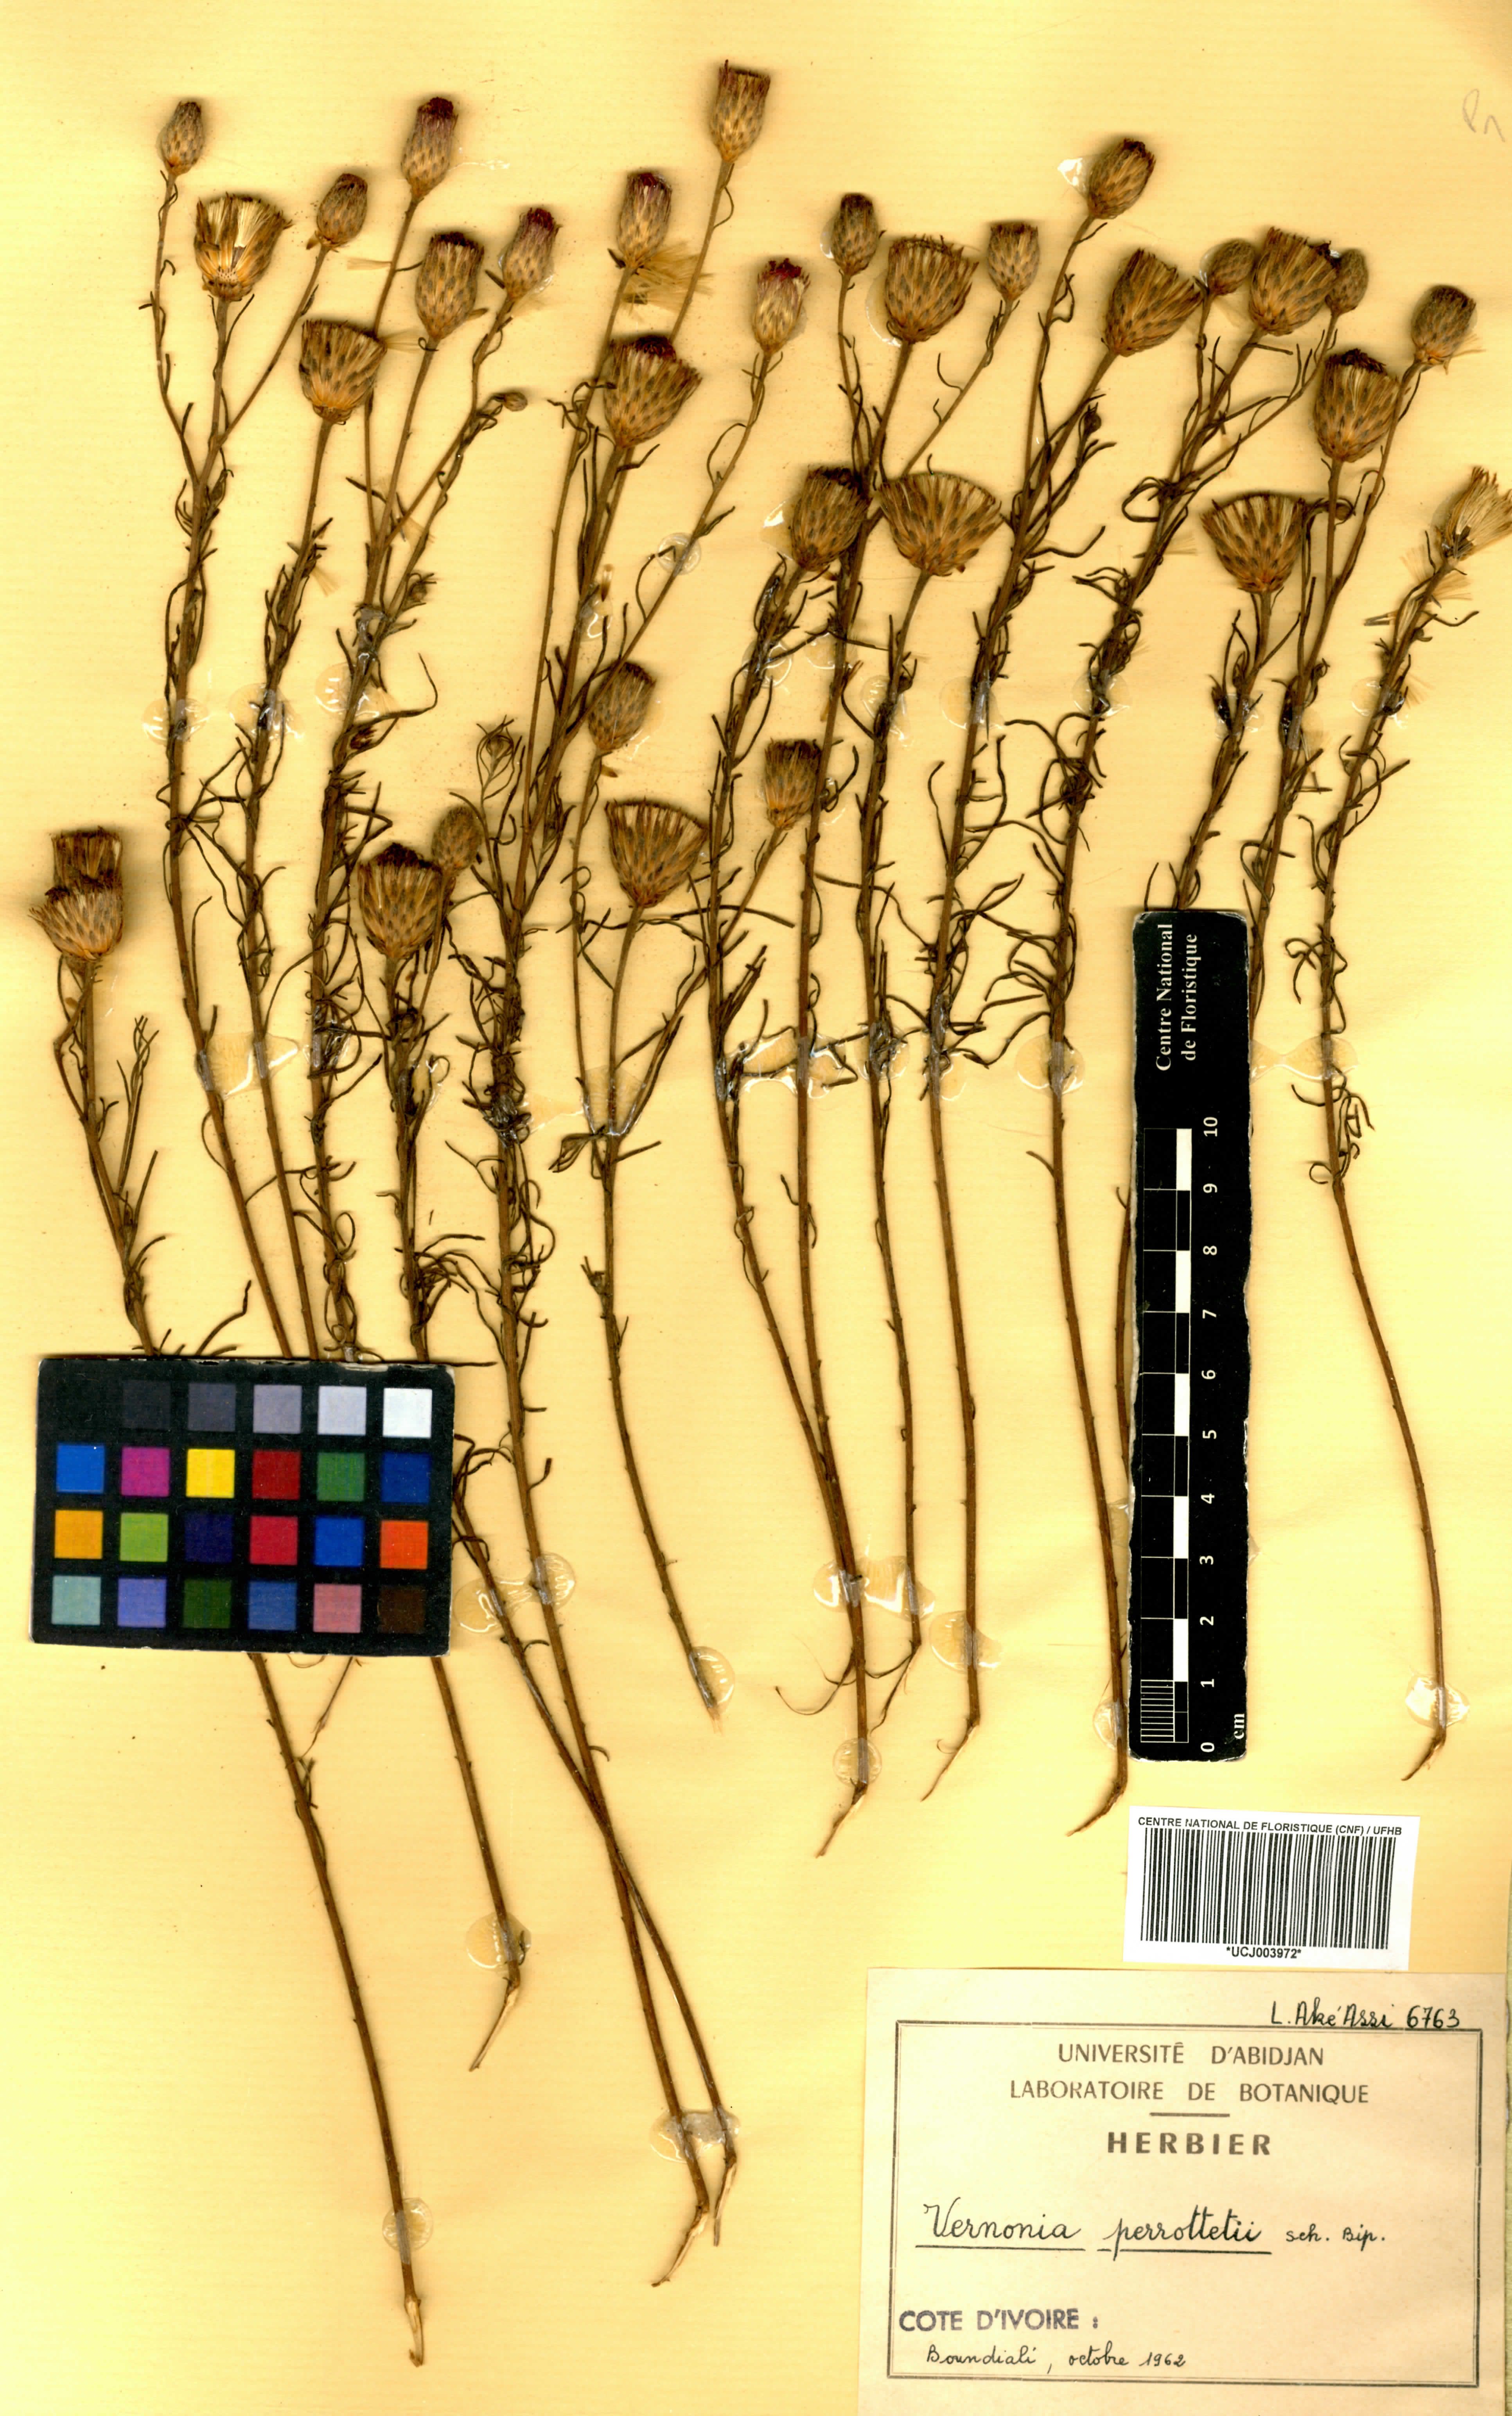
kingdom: Plantae
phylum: Tracheophyta
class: Magnoliopsida
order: Asterales
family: Asteraceae
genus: Crystallopollen
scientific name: Crystallopollen serratuloides
